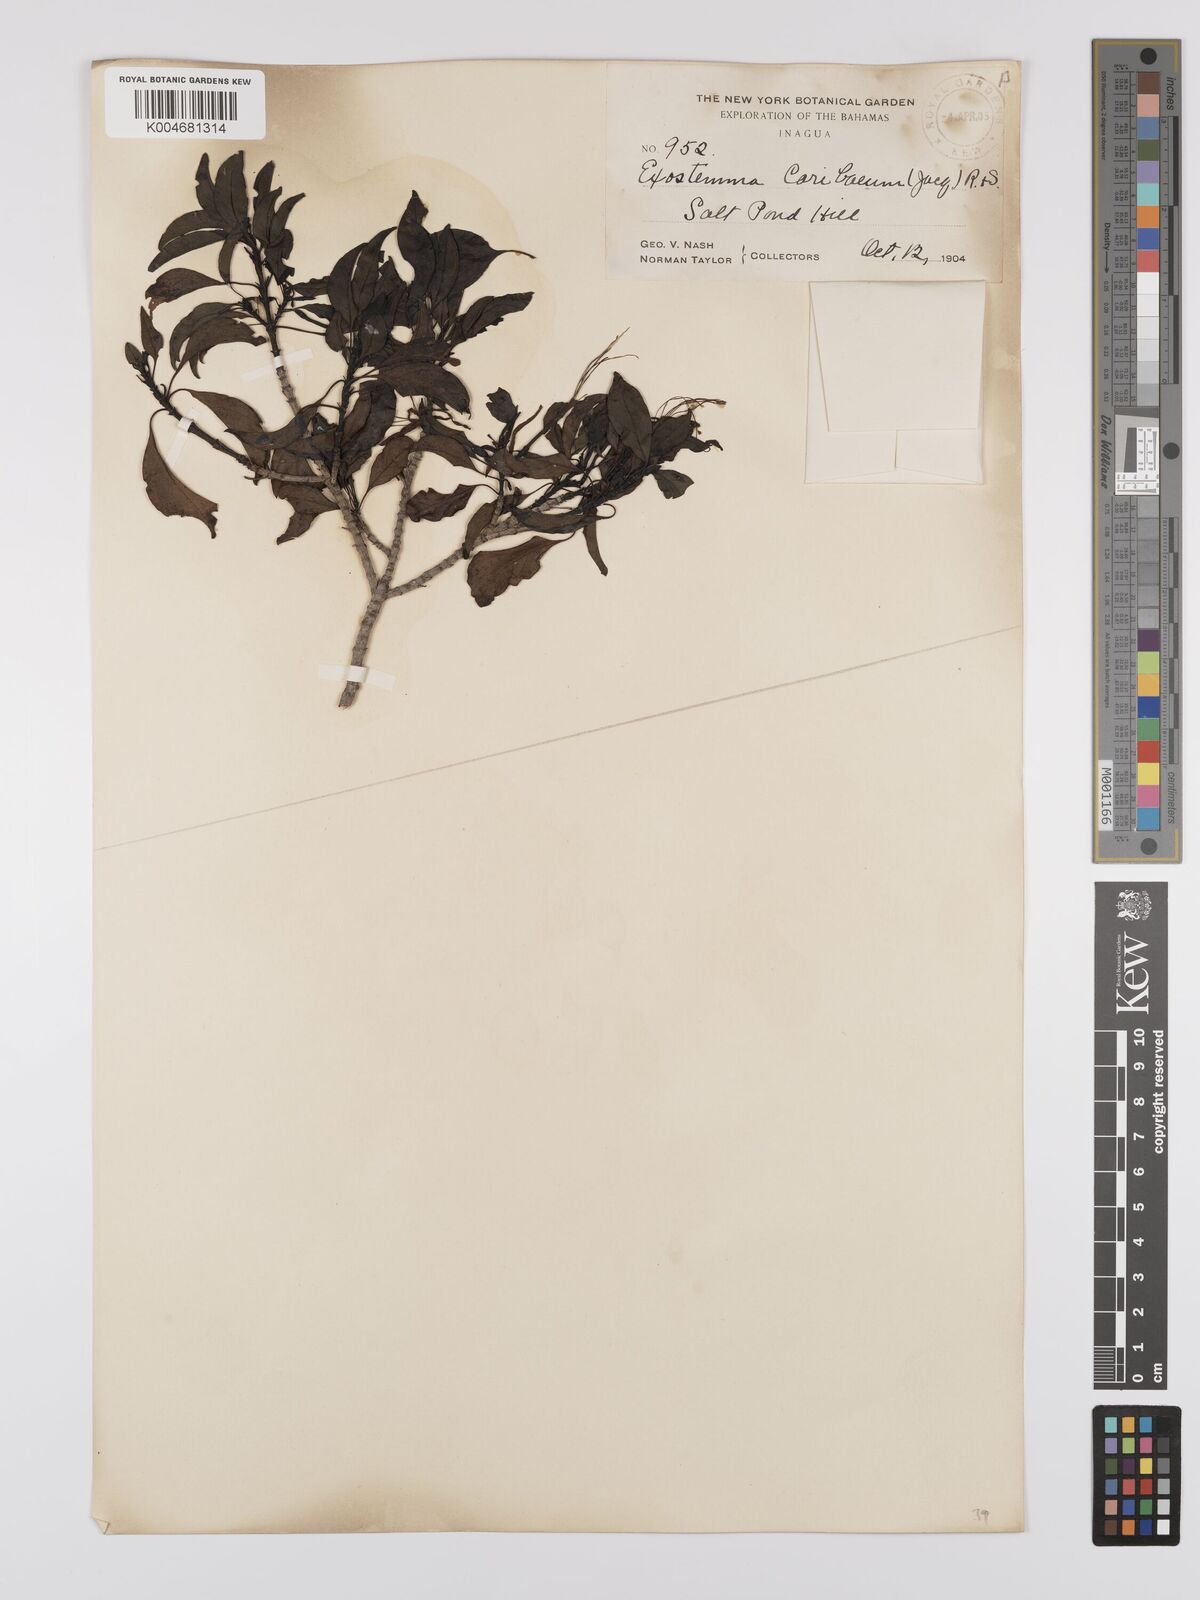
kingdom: Plantae
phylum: Tracheophyta
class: Magnoliopsida
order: Gentianales
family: Rubiaceae
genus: Exostema
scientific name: Exostema caribaeum
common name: Princewood
